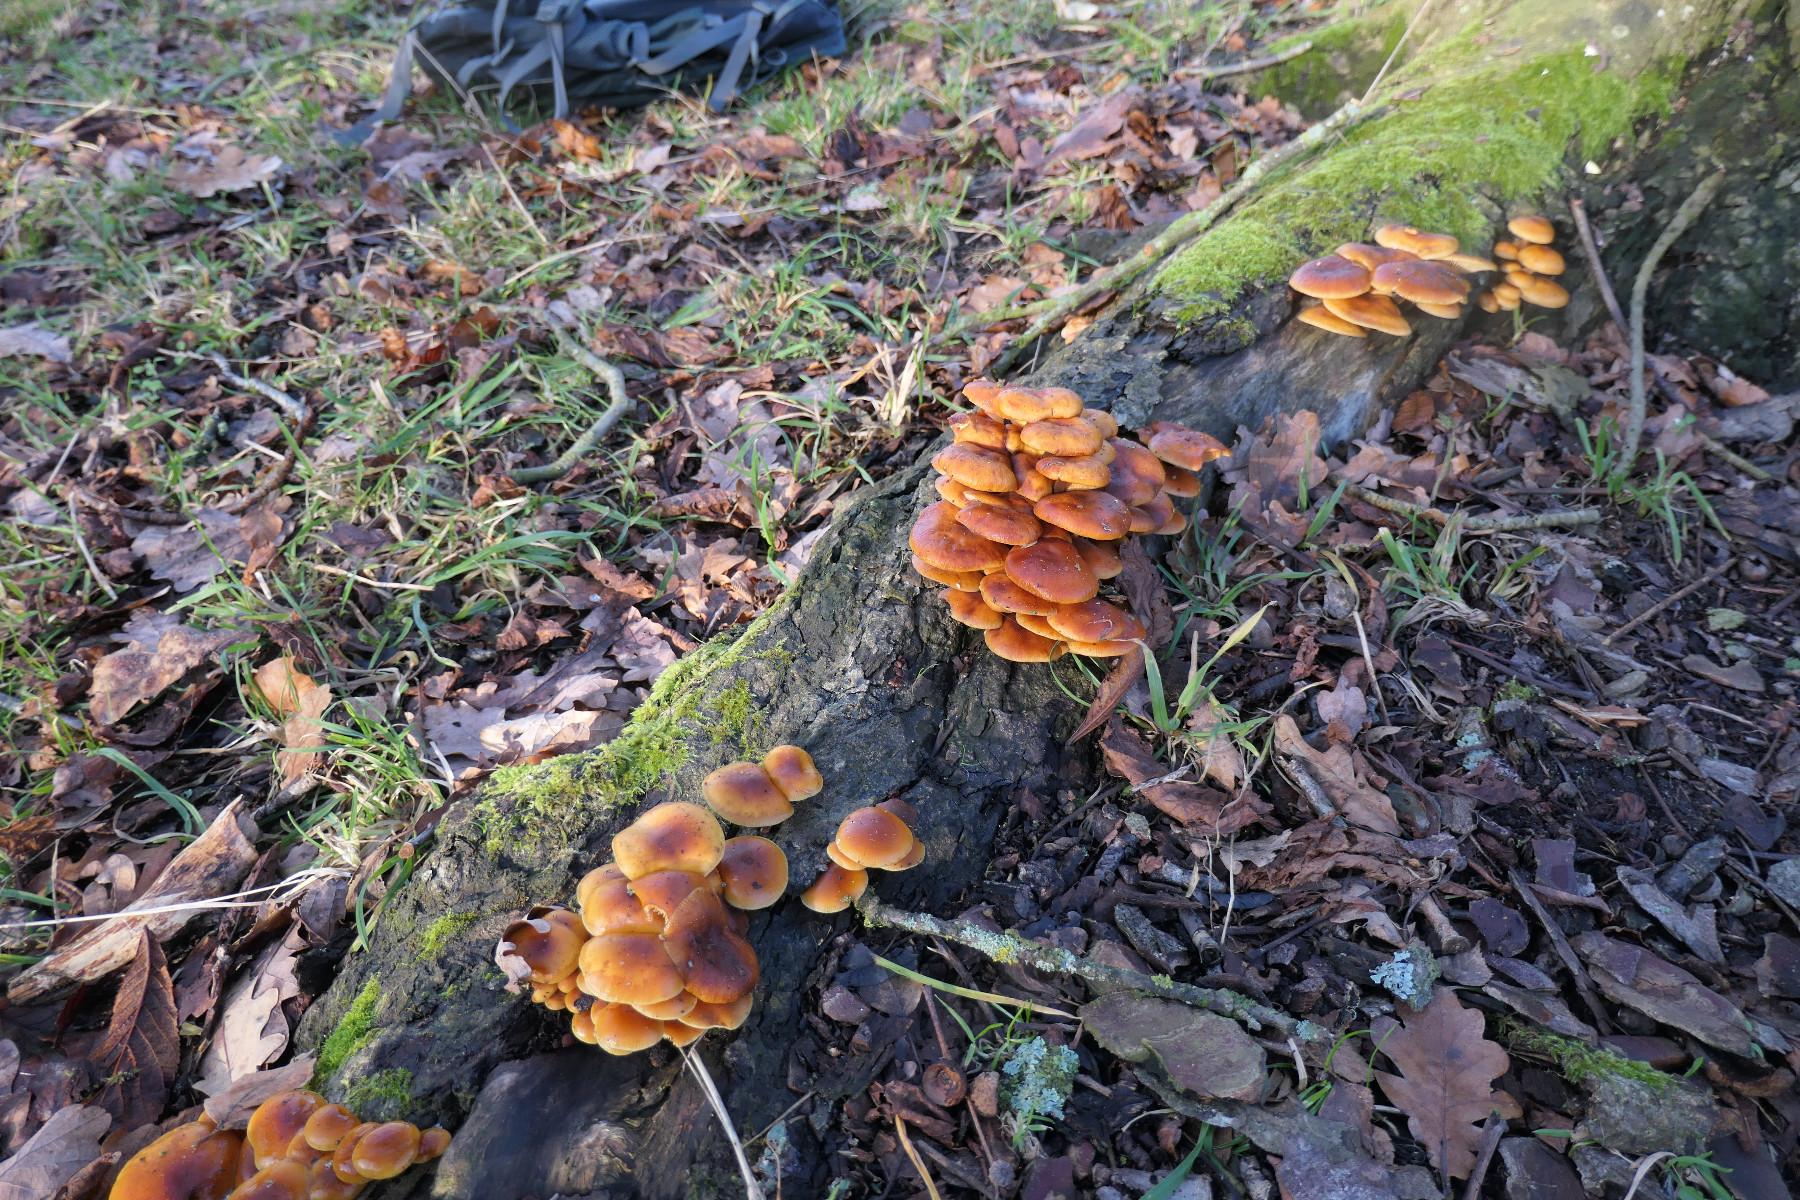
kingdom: Fungi
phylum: Basidiomycota
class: Agaricomycetes
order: Agaricales
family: Physalacriaceae
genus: Flammulina
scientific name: Flammulina velutipes
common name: gul fløjlsfod
